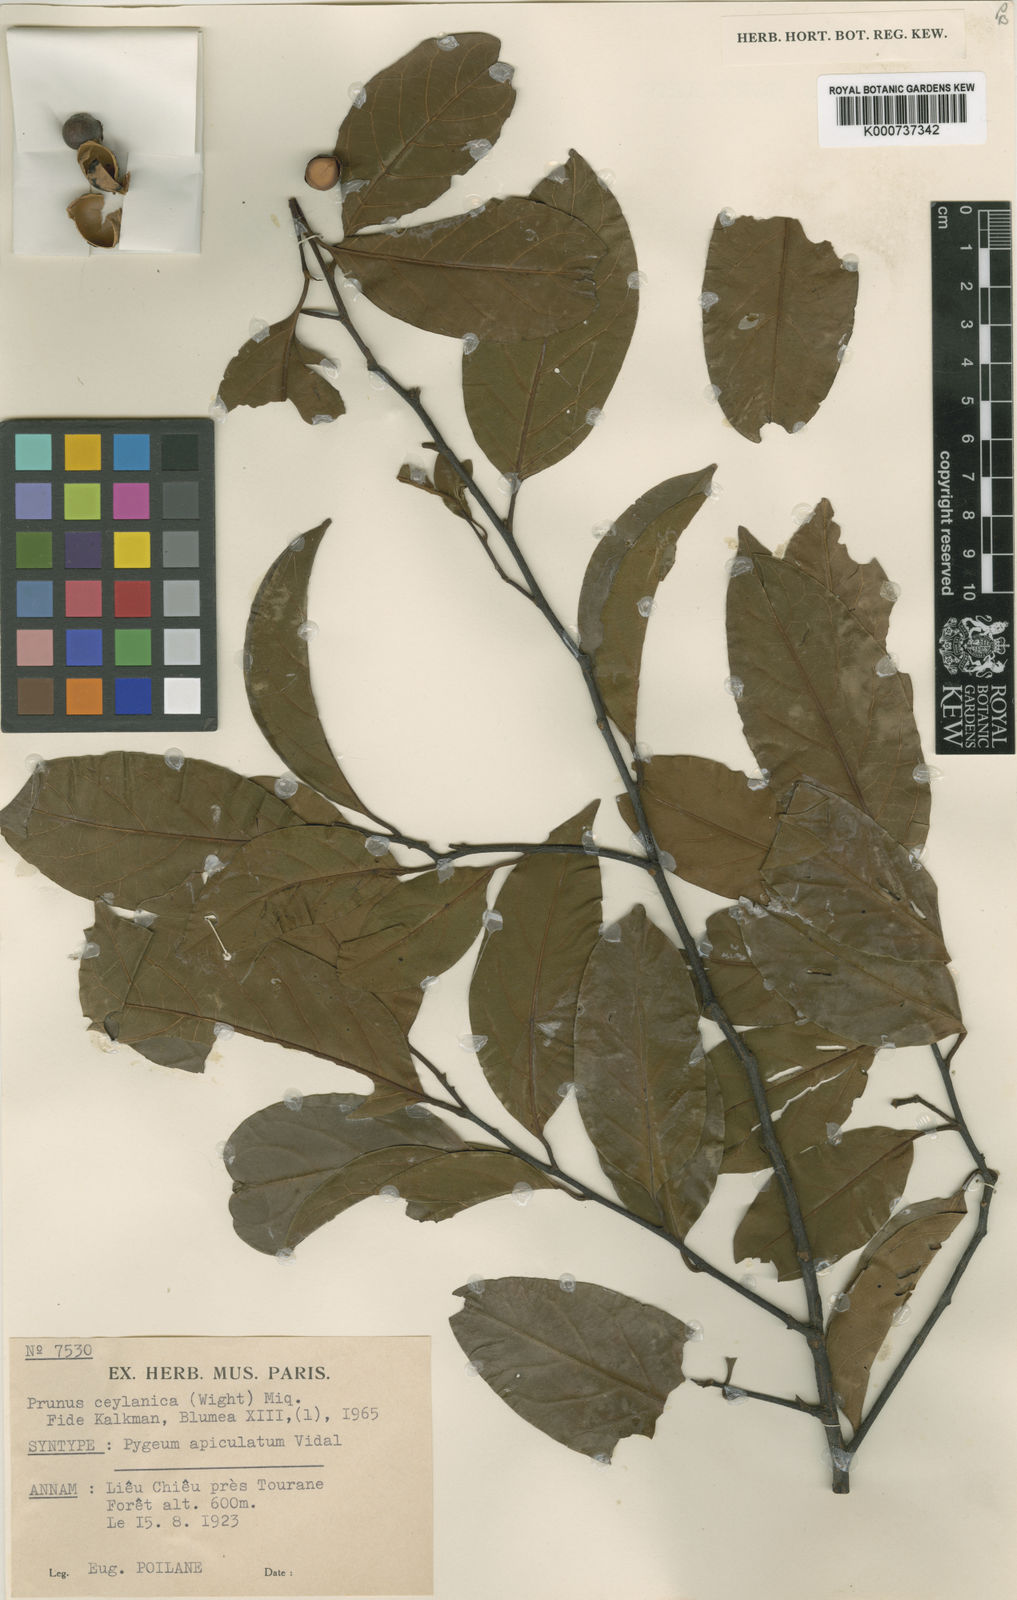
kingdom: Plantae
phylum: Tracheophyta
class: Magnoliopsida
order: Rosales
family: Rosaceae
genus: Prunus
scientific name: Prunus ceylanica
